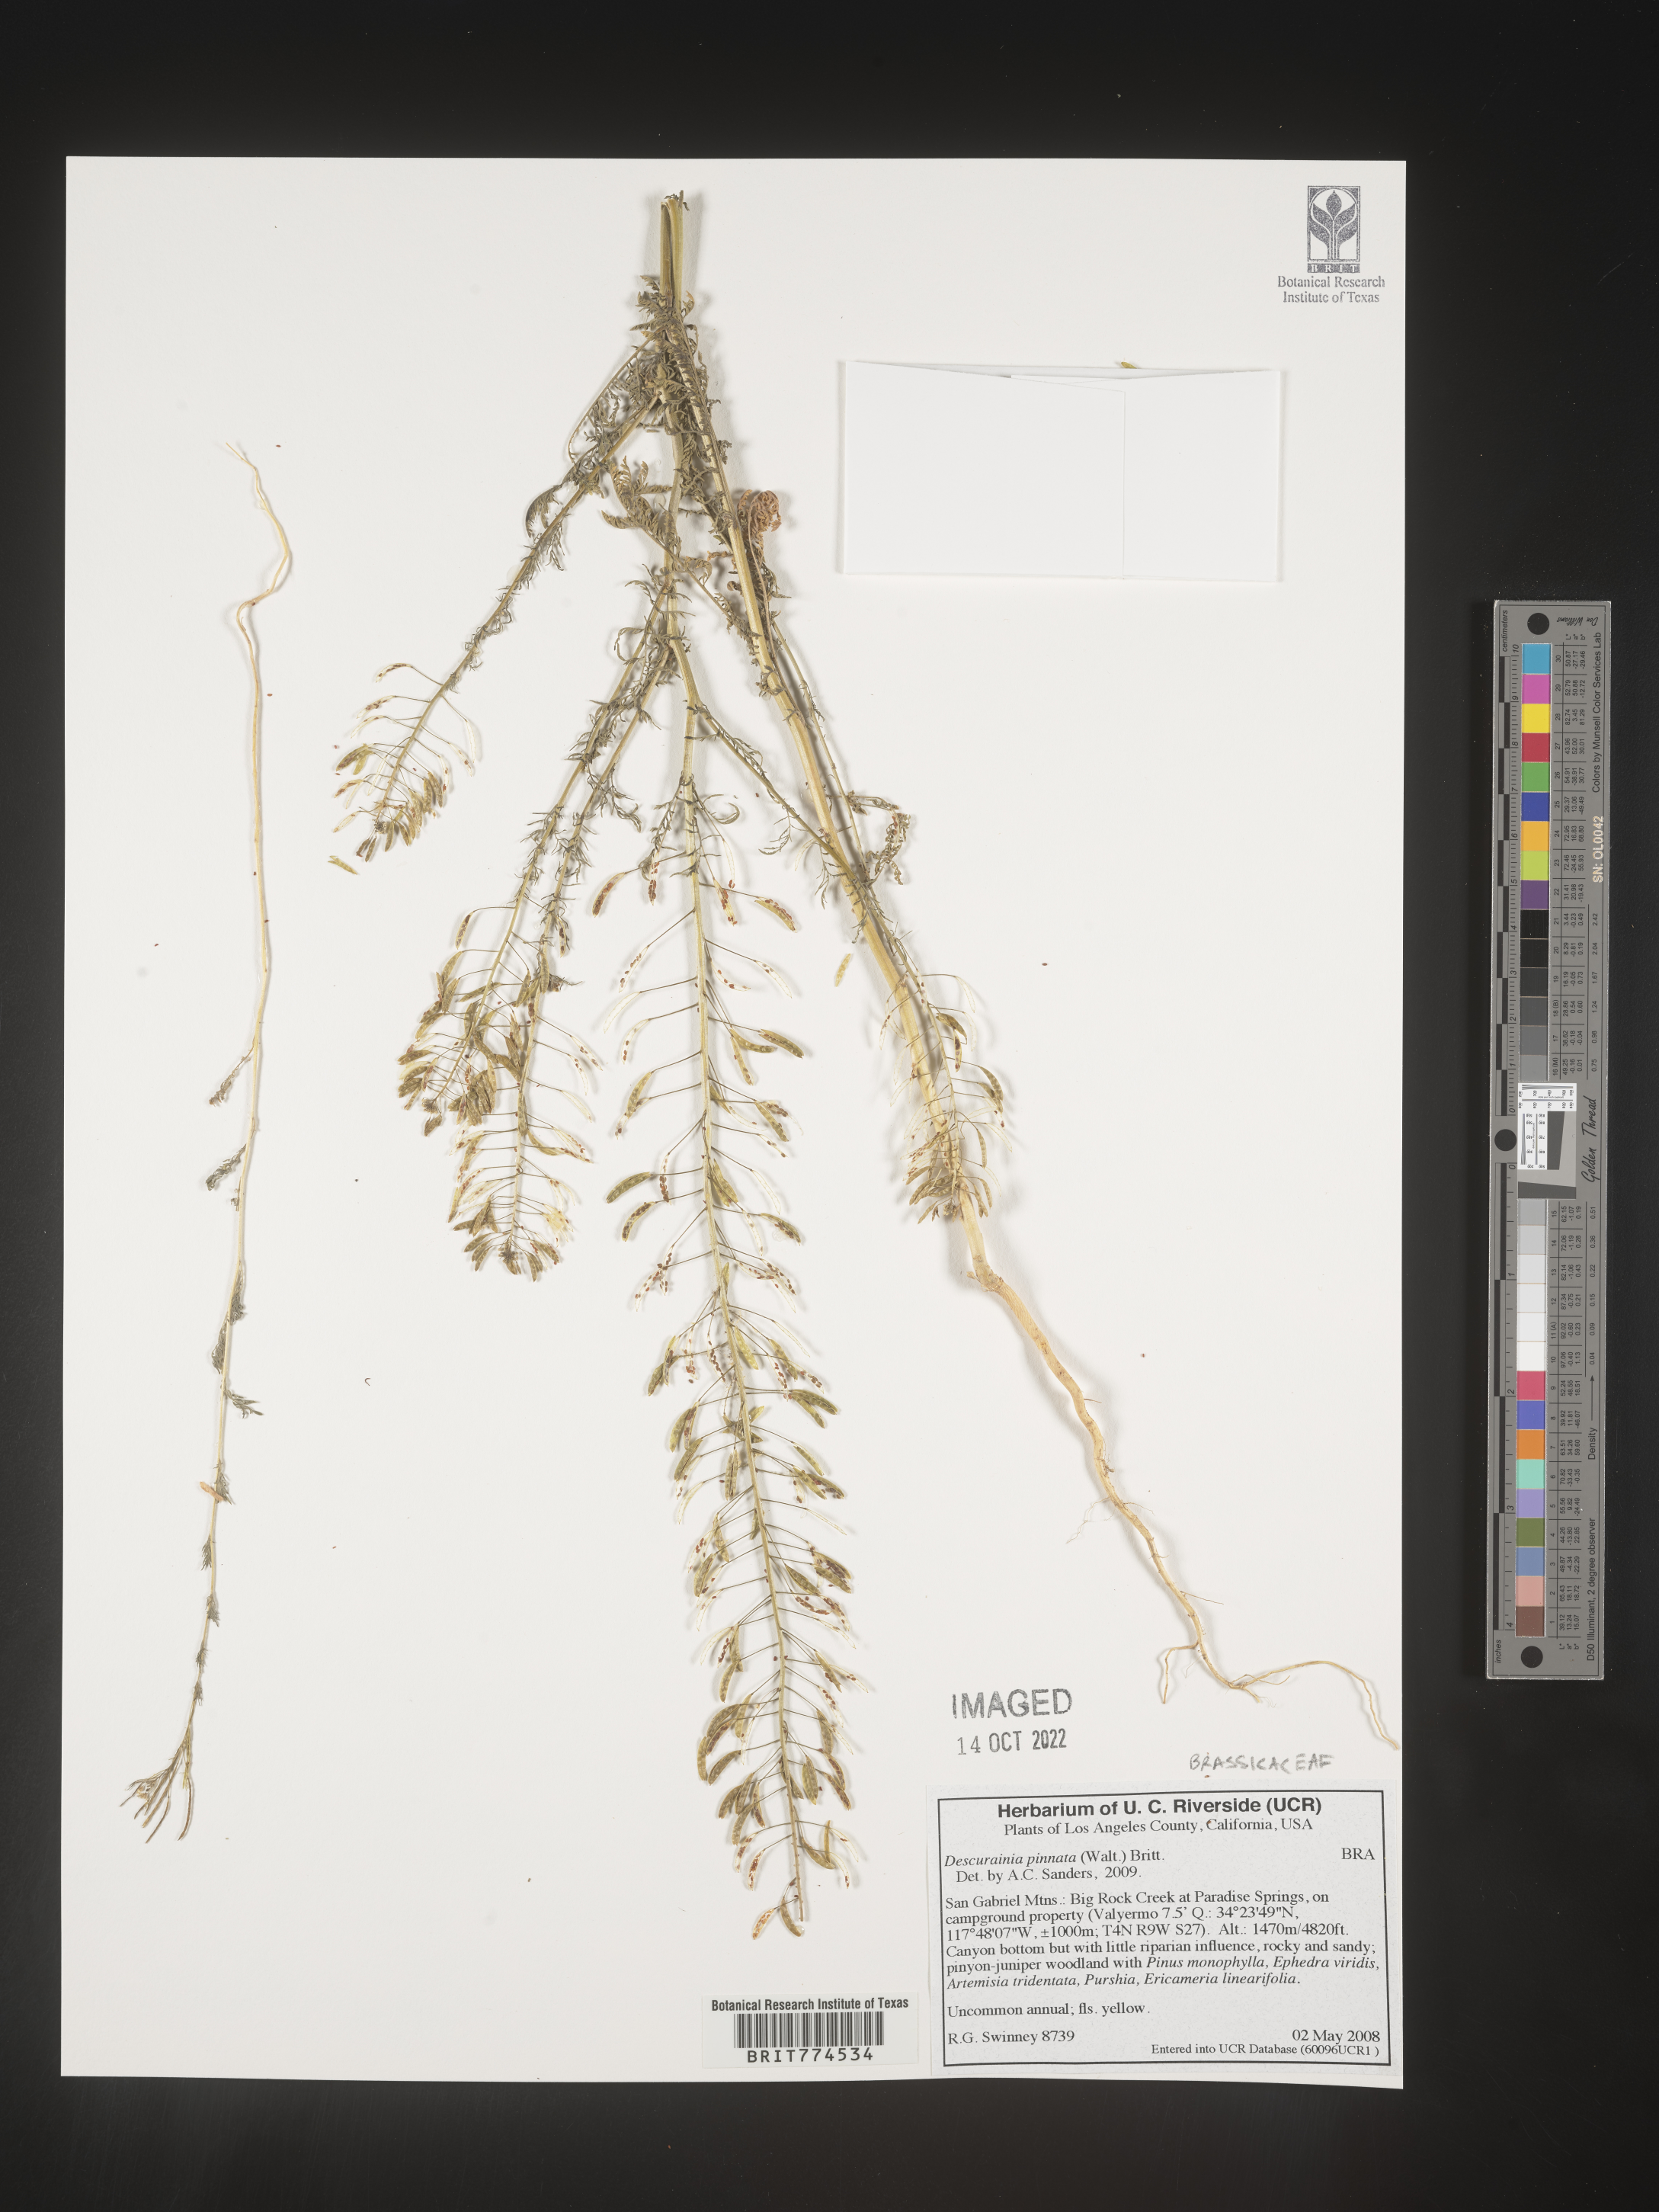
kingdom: Plantae
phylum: Tracheophyta
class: Magnoliopsida
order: Brassicales
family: Brassicaceae
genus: Descurainia
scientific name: Descurainia pinnata
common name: Western tansy mustard
